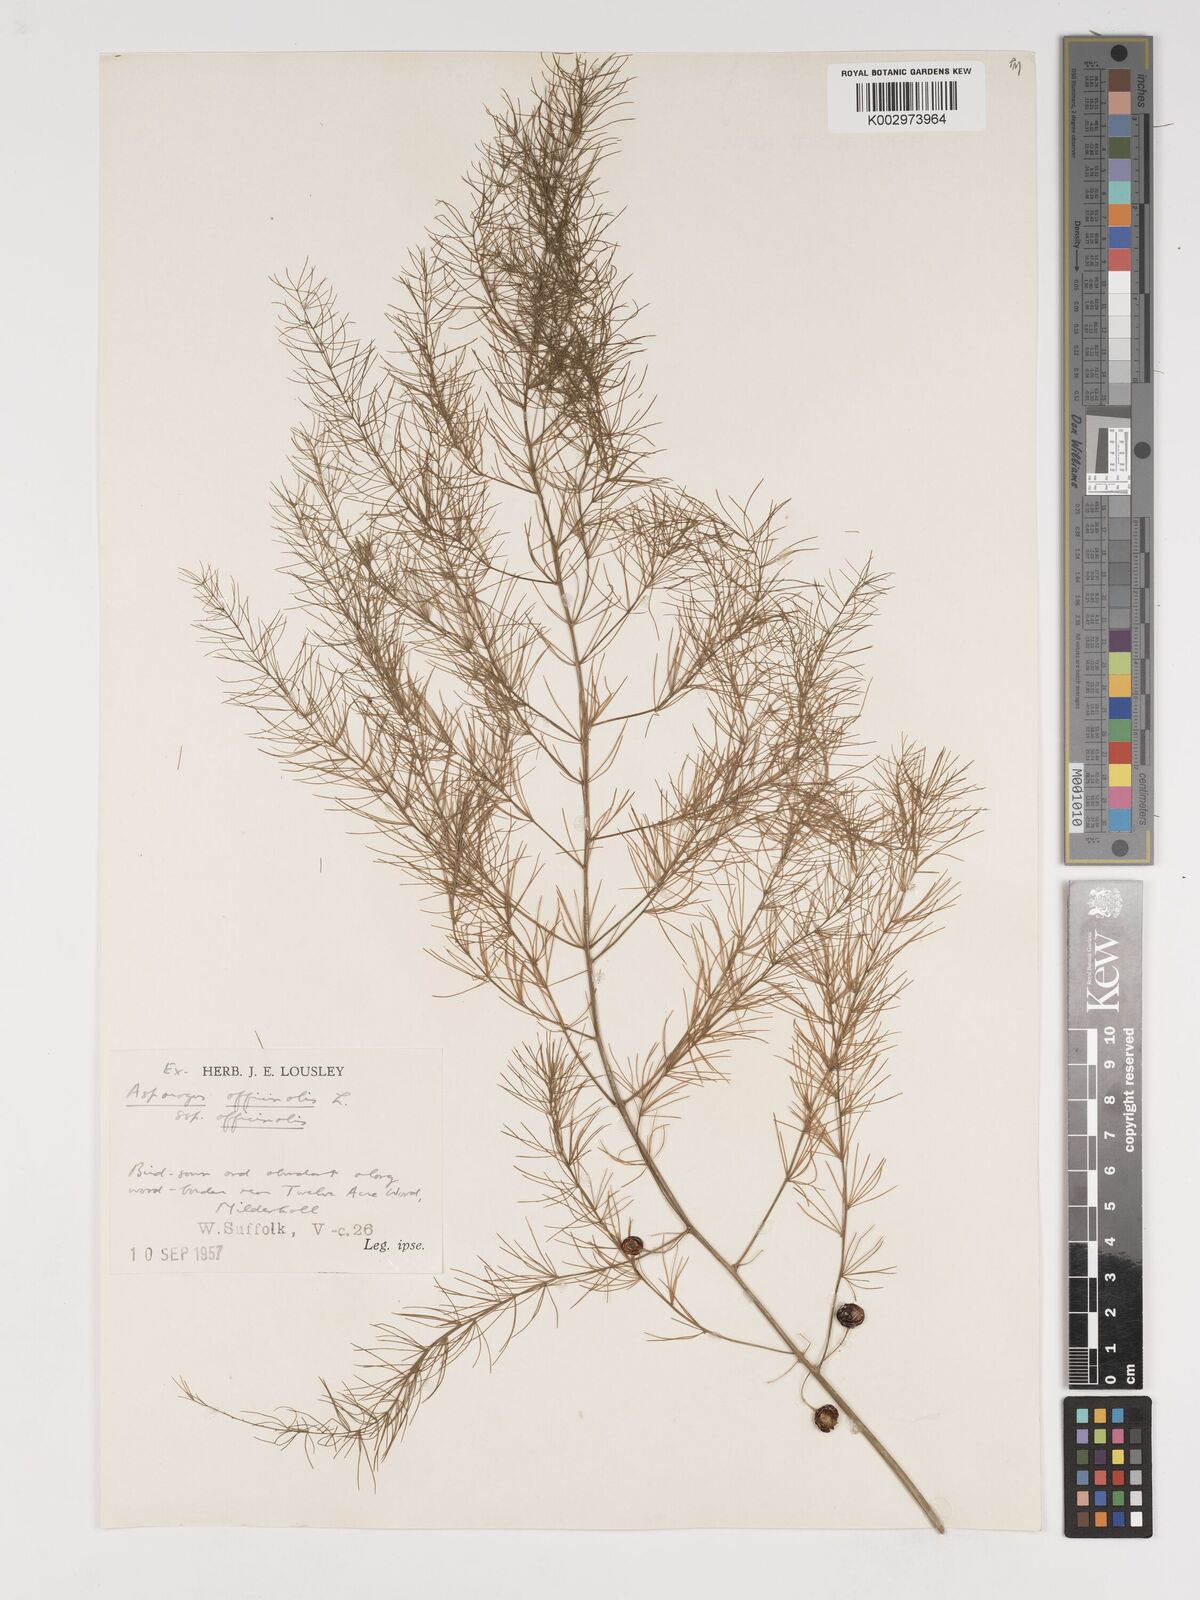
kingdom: Plantae
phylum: Tracheophyta
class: Liliopsida
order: Asparagales
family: Asparagaceae
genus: Asparagus
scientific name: Asparagus officinalis
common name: Garden asparagus
